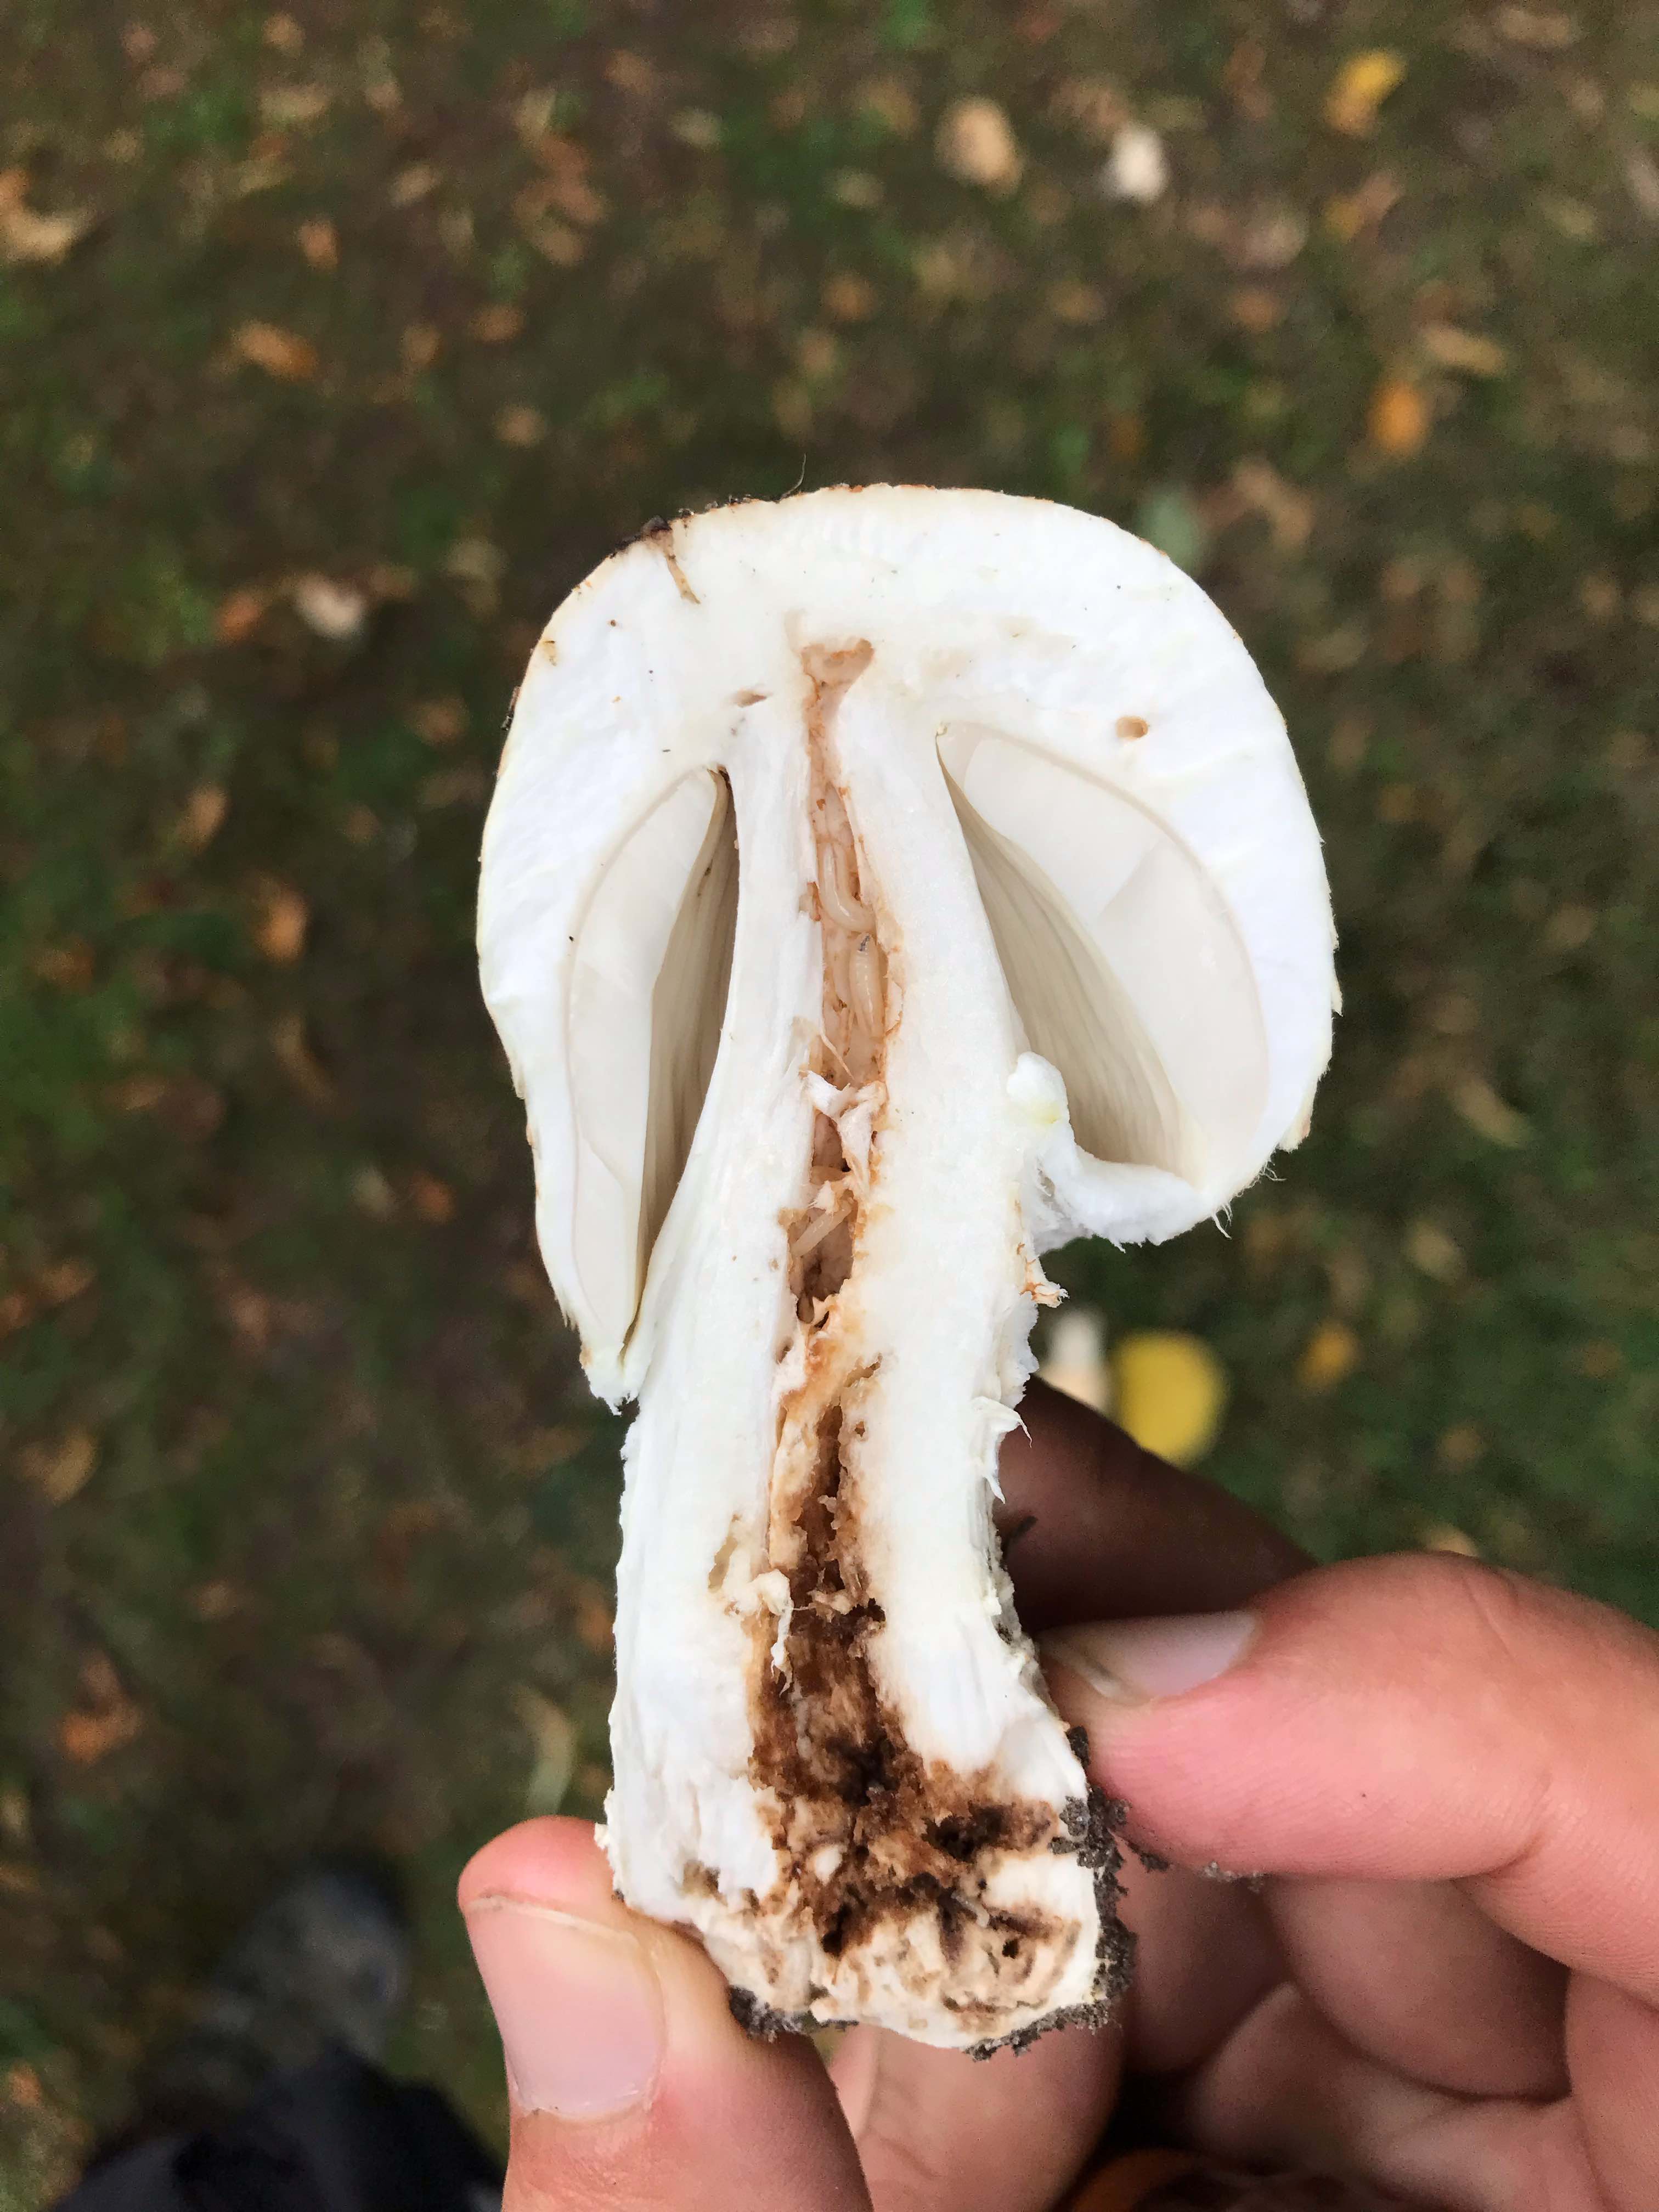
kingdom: Fungi
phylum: Basidiomycota
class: Agaricomycetes
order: Agaricales
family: Agaricaceae
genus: Agaricus
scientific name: Agaricus augustus
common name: prægtig champignon
